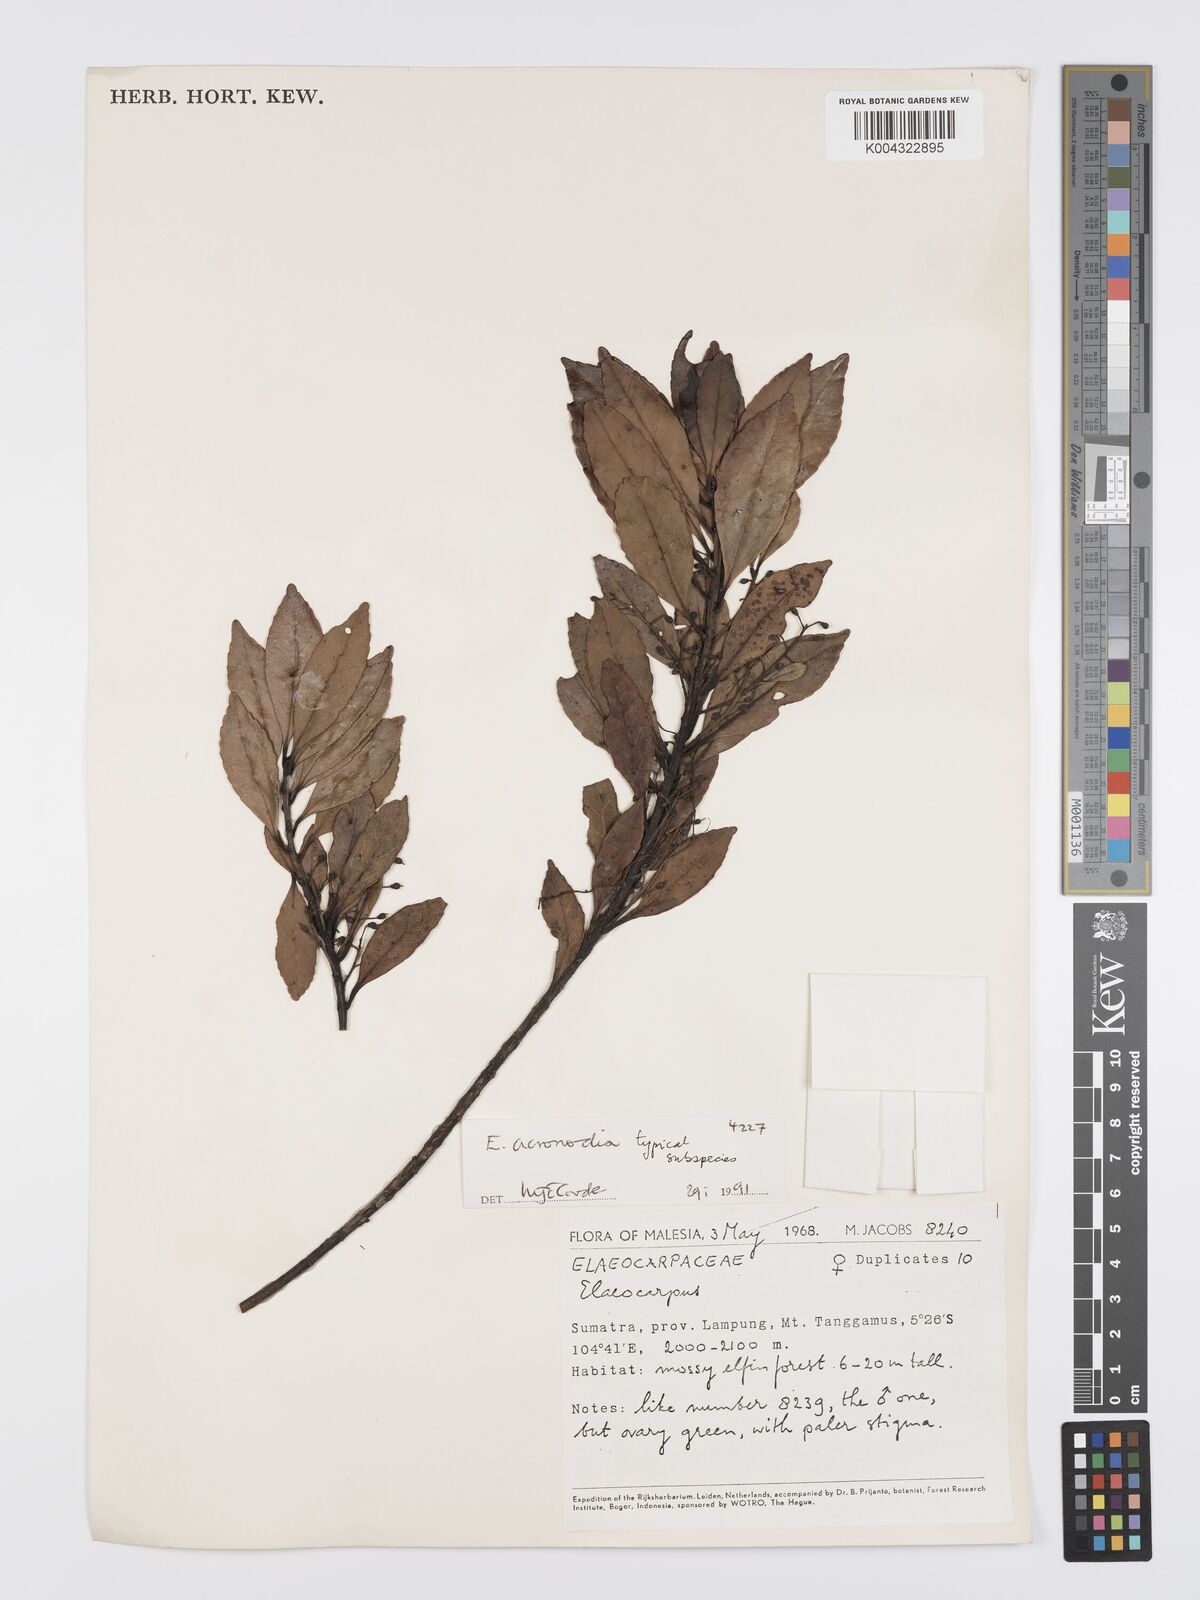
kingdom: Plantae
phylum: Tracheophyta
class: Magnoliopsida
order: Oxalidales
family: Elaeocarpaceae
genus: Elaeocarpus
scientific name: Elaeocarpus acronodia
